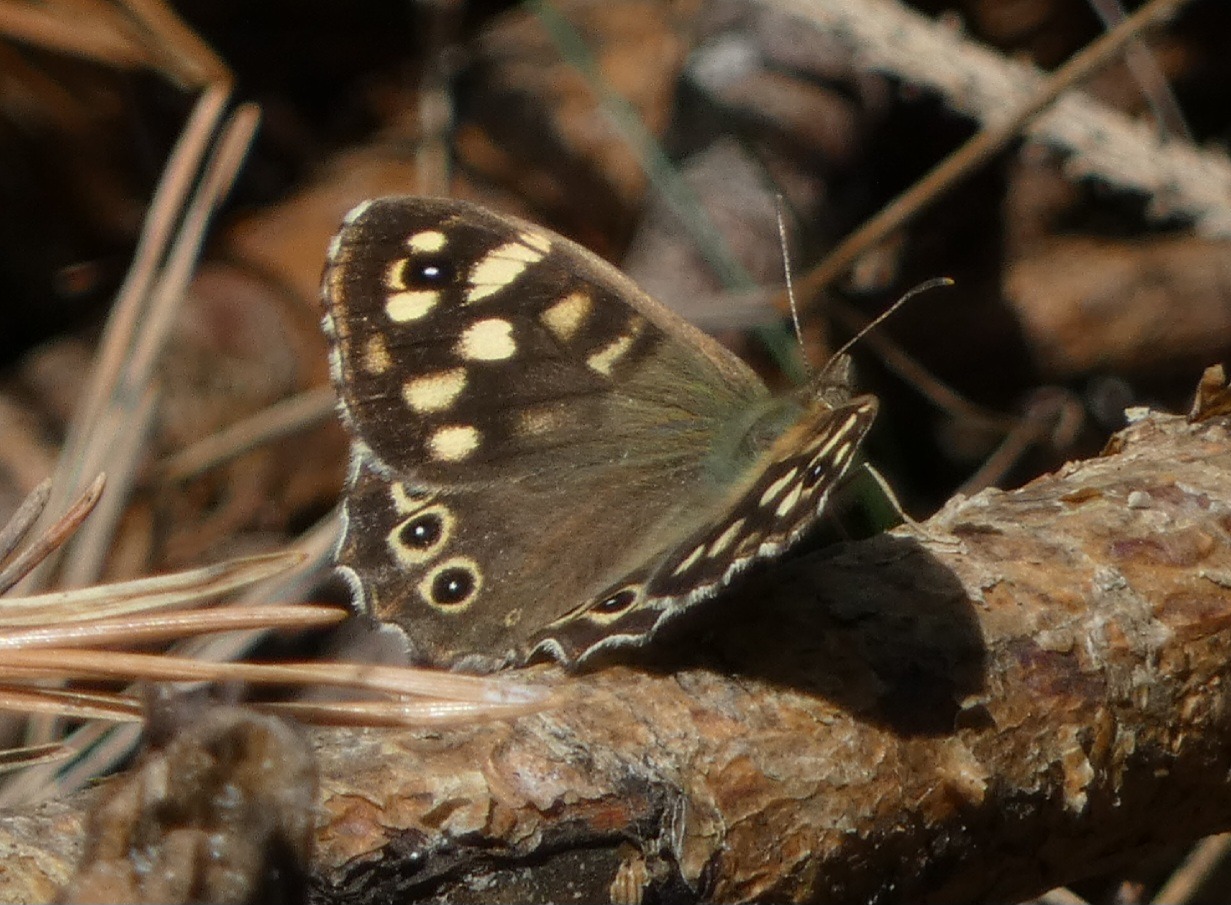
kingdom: Animalia
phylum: Arthropoda
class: Insecta
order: Lepidoptera
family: Nymphalidae
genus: Pararge
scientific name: Pararge aegeria
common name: Skovrandøje
